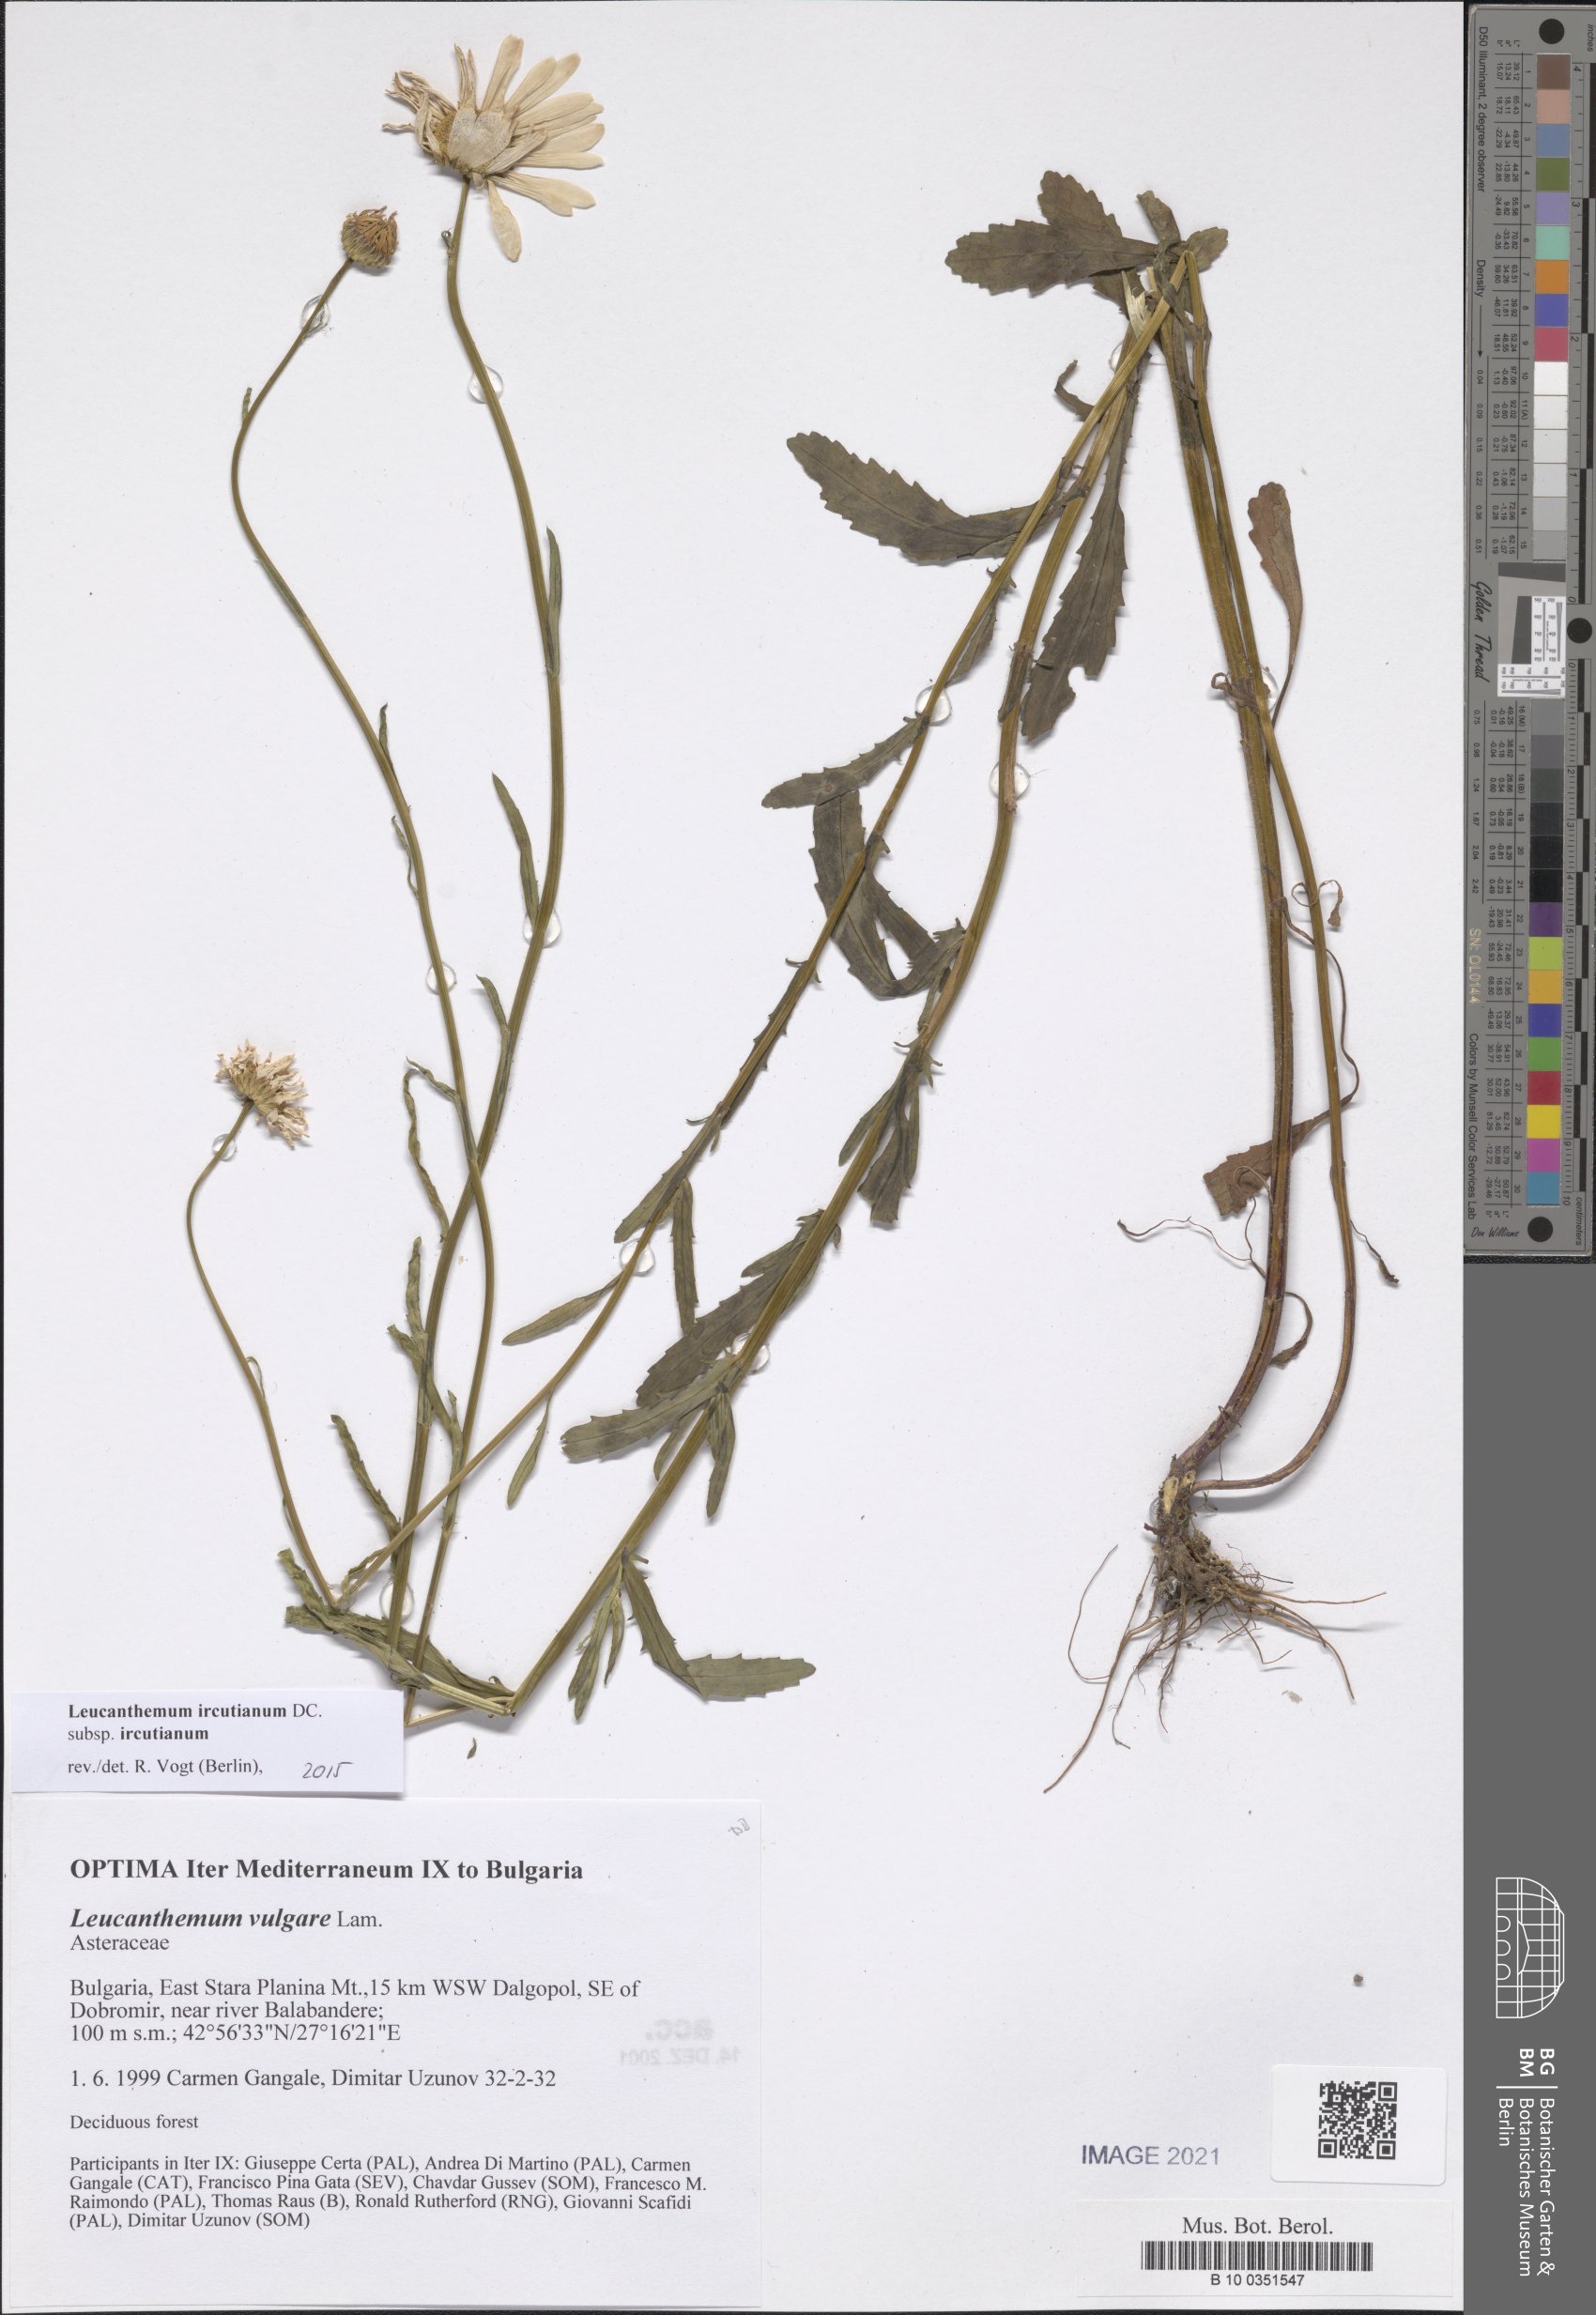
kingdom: Plantae
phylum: Tracheophyta
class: Magnoliopsida
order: Asterales
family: Asteraceae
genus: Leucanthemum
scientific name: Leucanthemum ircutianum
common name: Daisy
